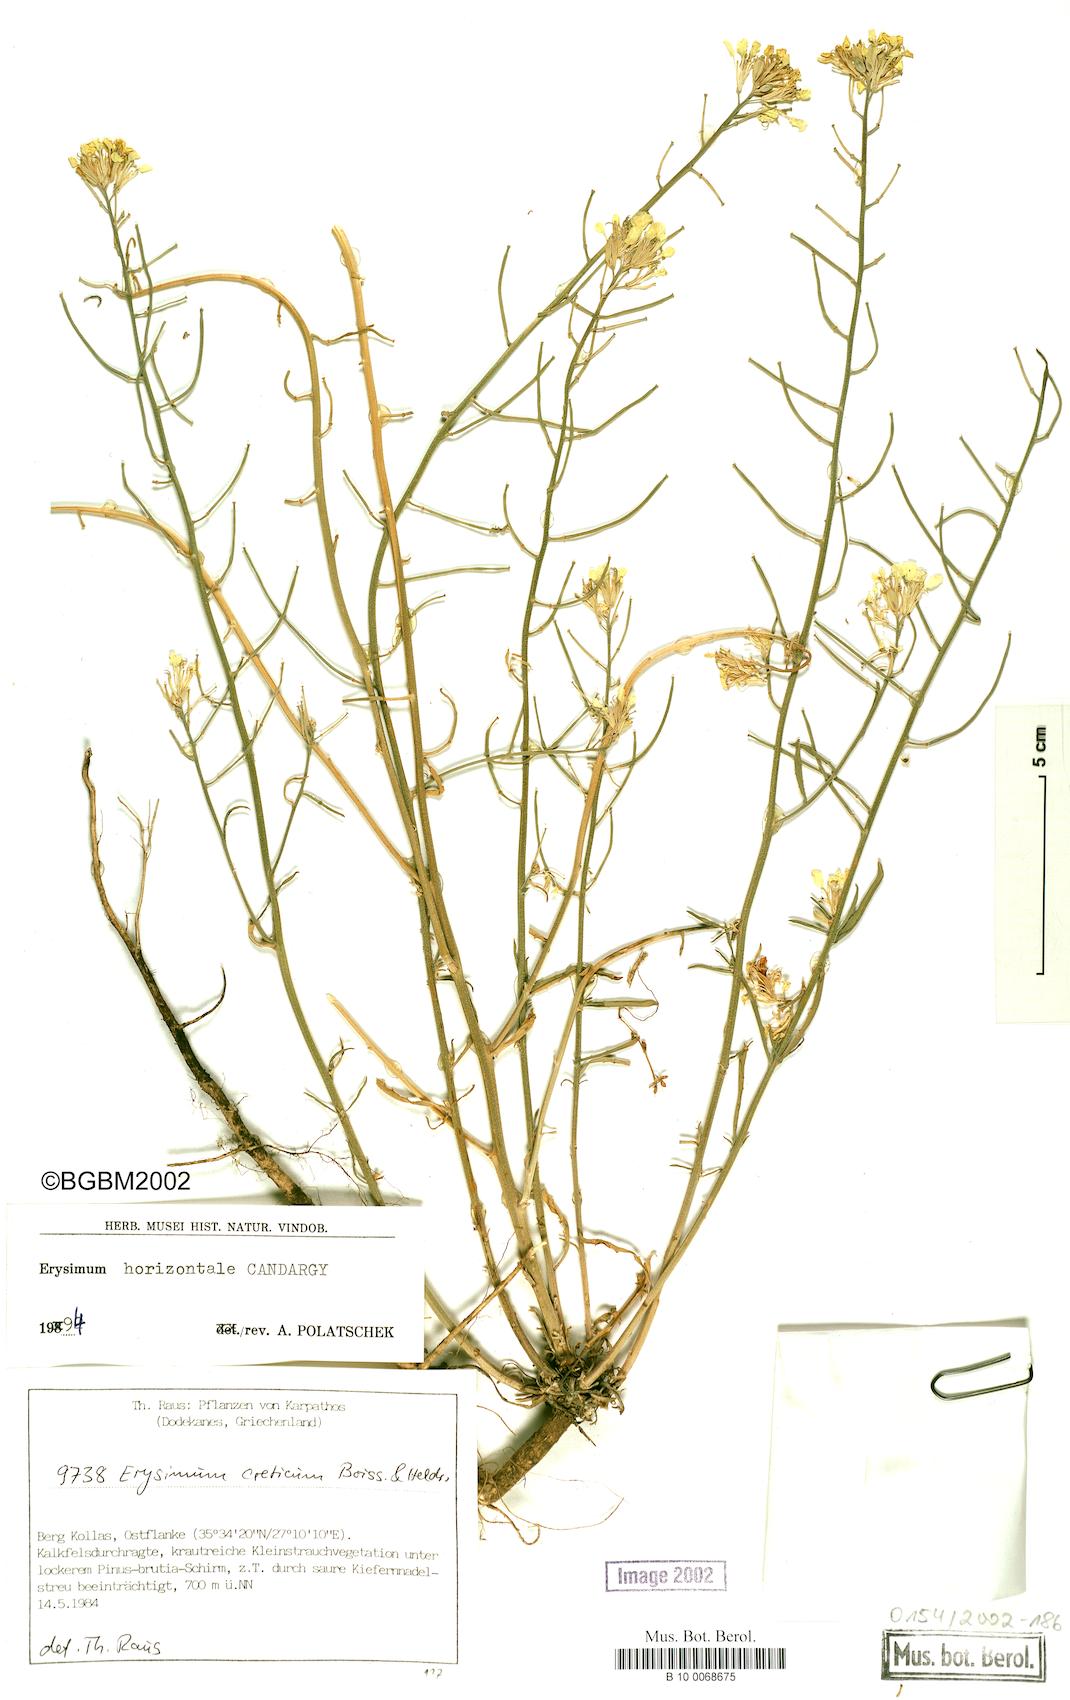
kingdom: Plantae
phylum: Tracheophyta
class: Magnoliopsida
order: Brassicales
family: Brassicaceae
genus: Erysimum
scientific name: Erysimum horizontale
